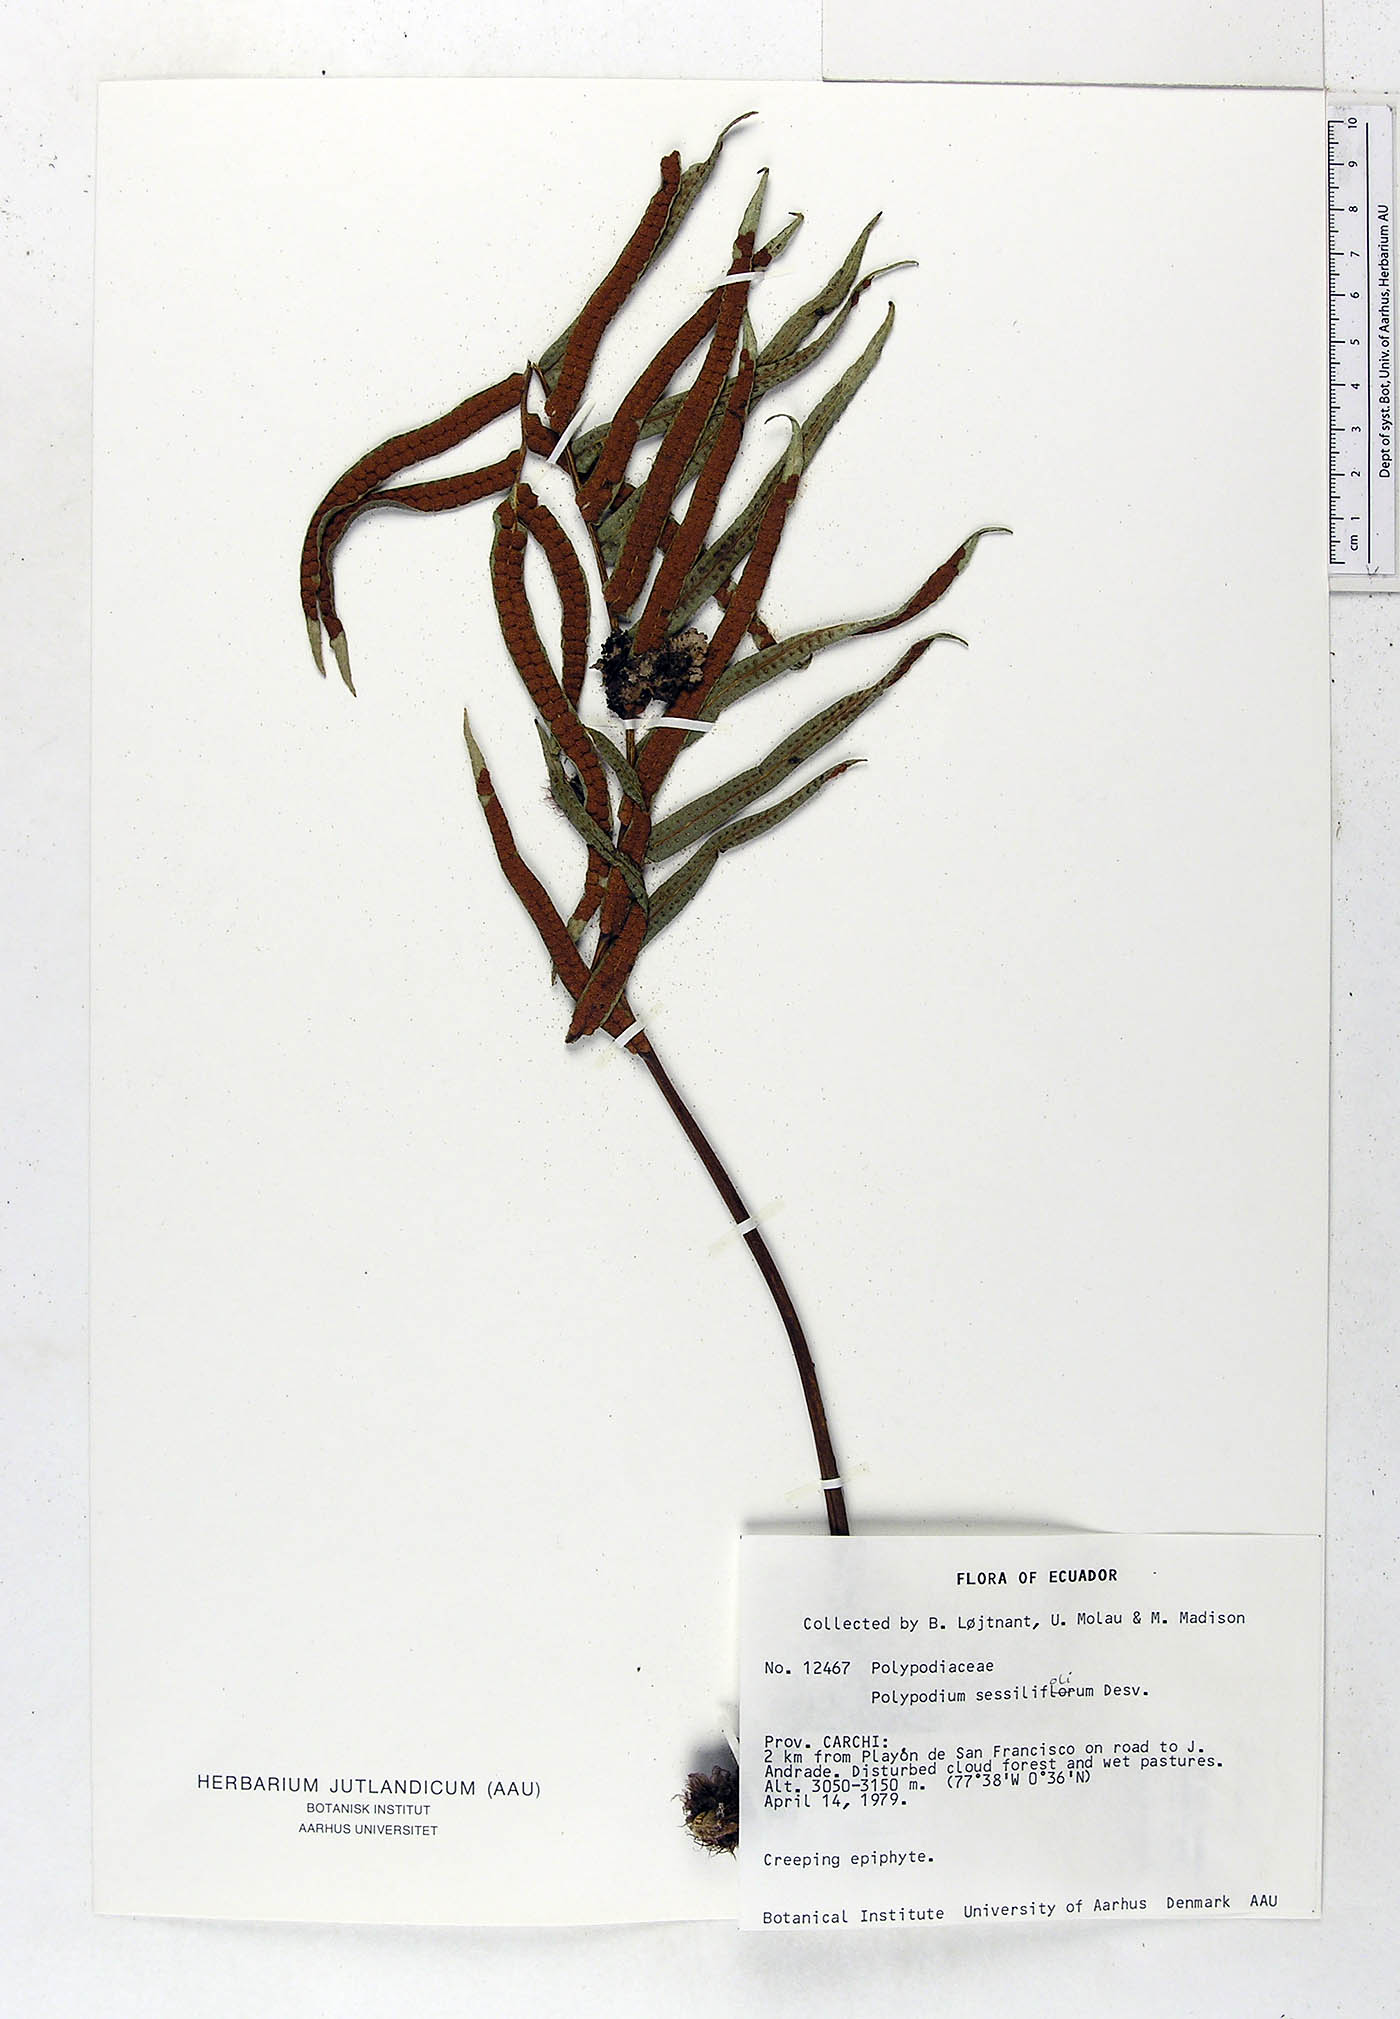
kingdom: Plantae
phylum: Tracheophyta
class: Polypodiopsida
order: Polypodiales
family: Polypodiaceae
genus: Serpocaulon
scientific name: Serpocaulon sessilifolium
